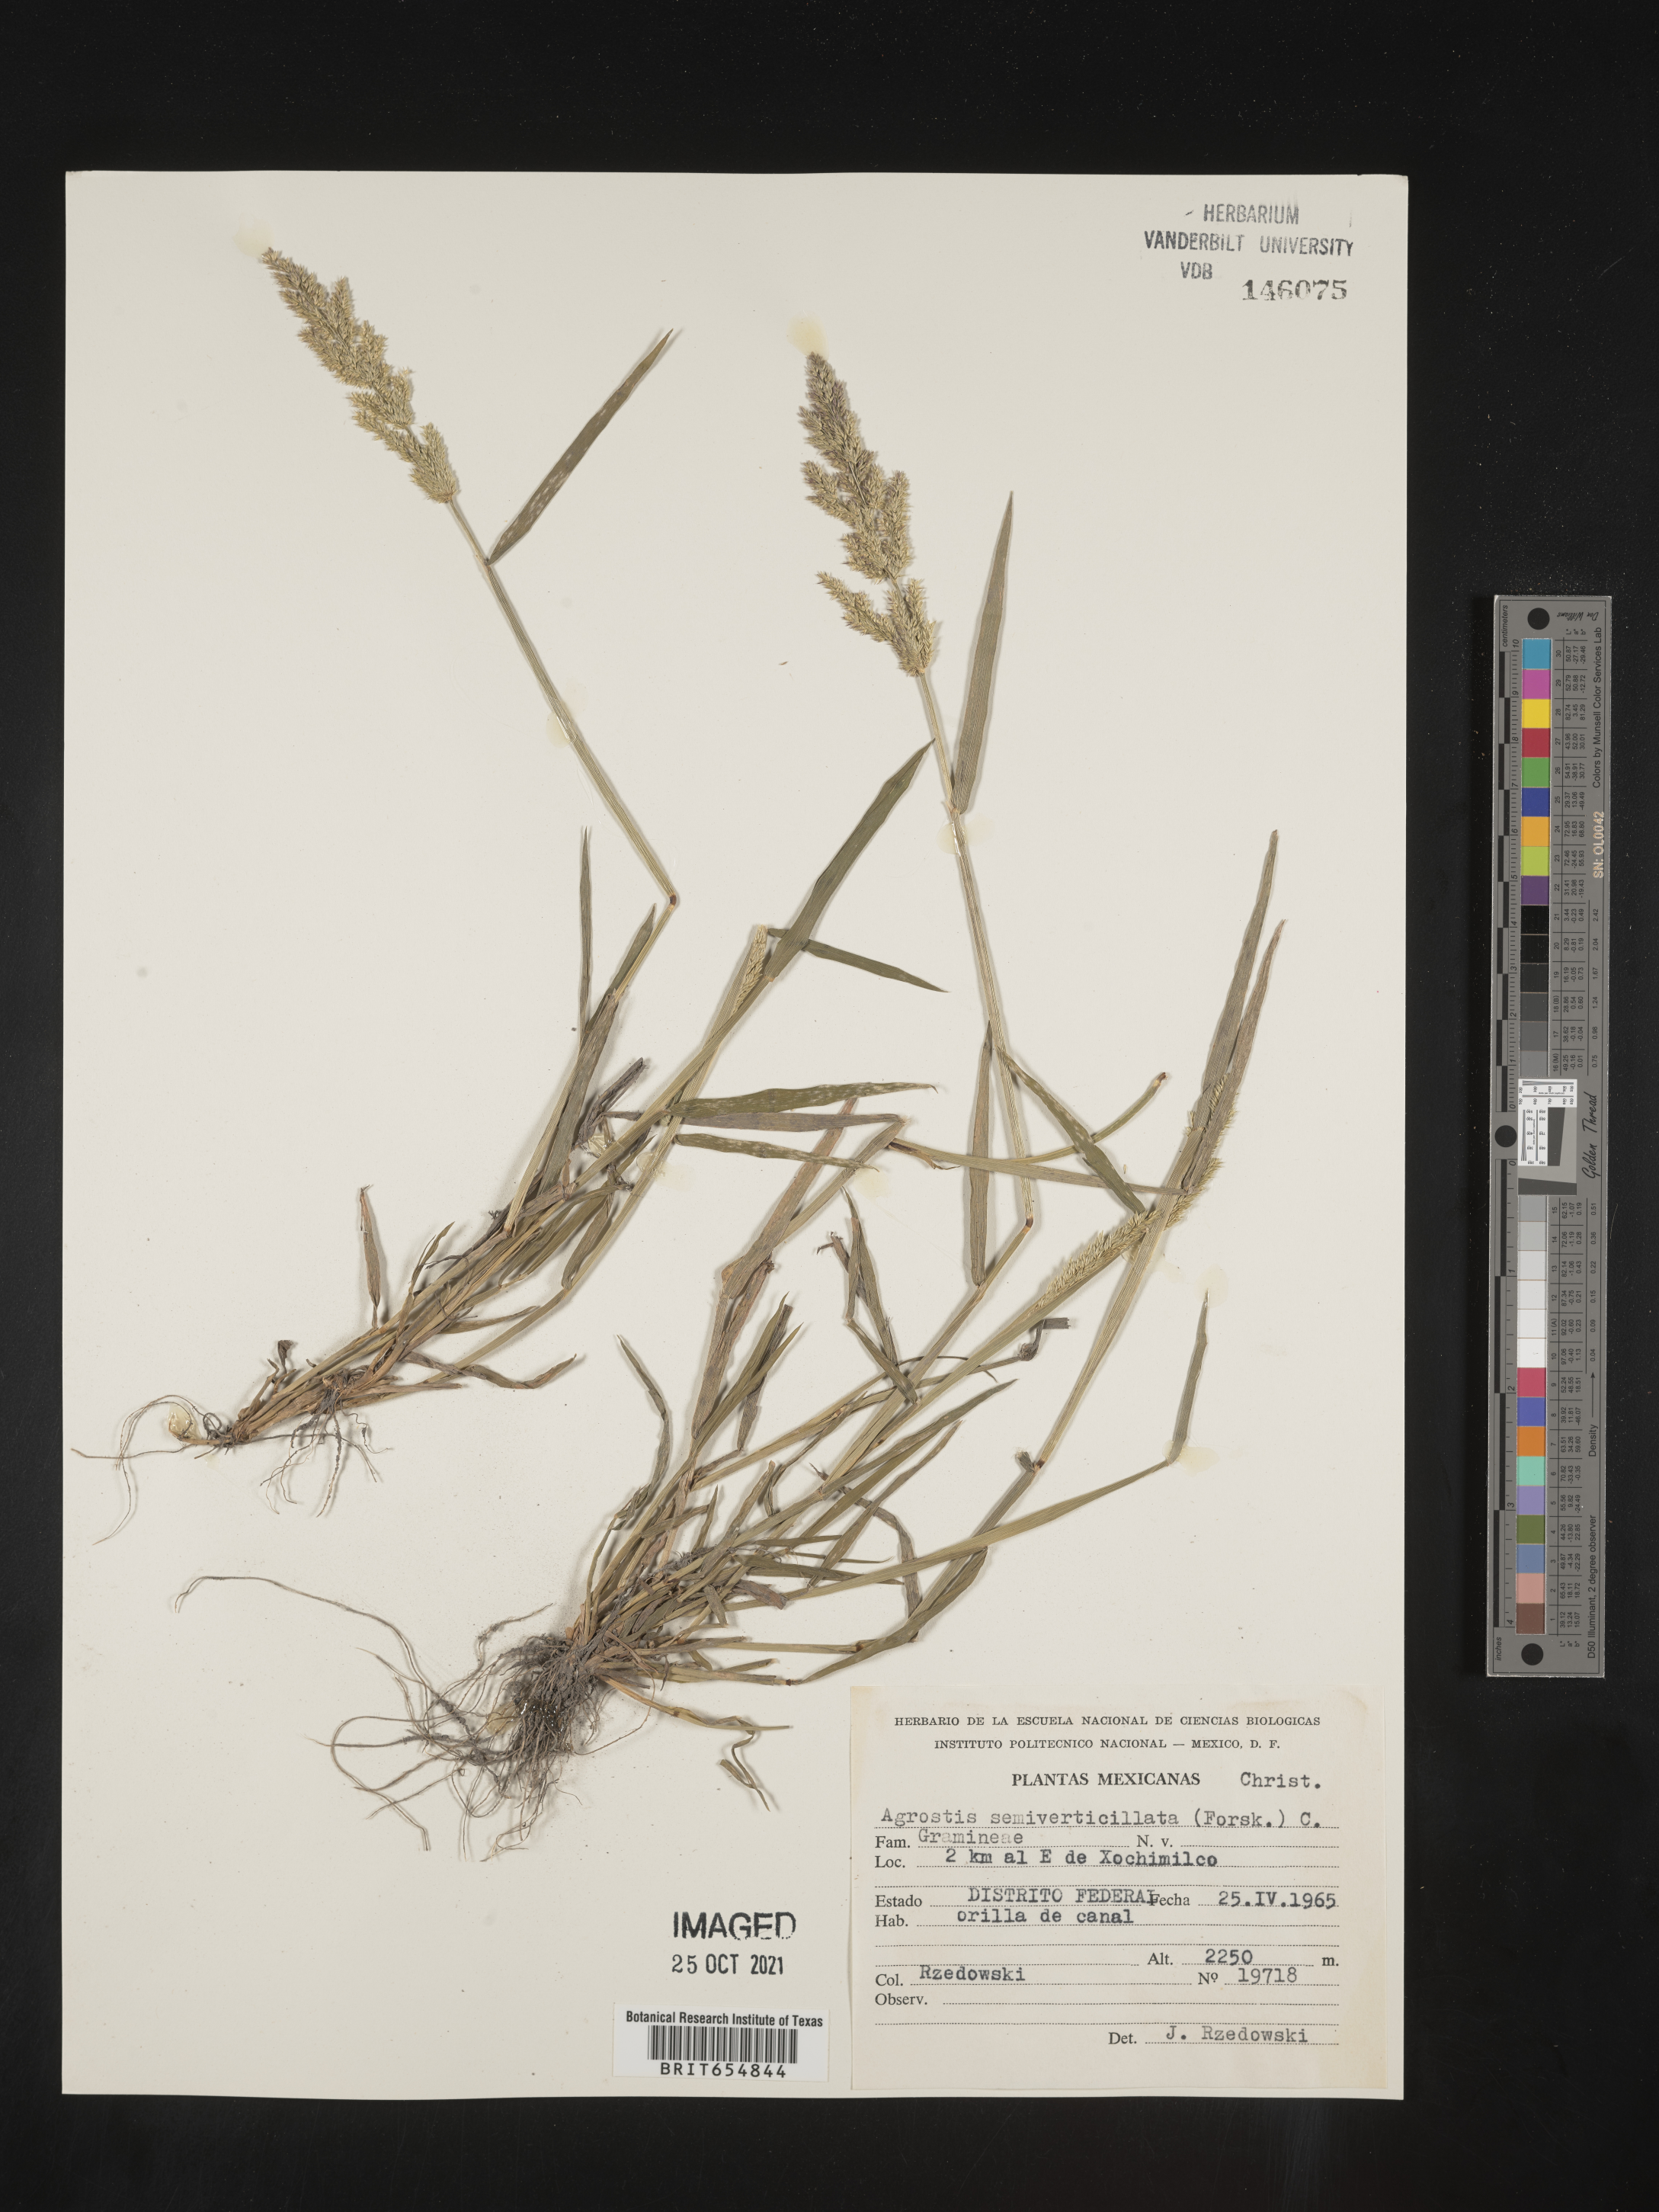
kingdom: Plantae
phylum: Tracheophyta
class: Liliopsida
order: Poales
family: Poaceae
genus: Agrostis
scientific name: Agrostis
